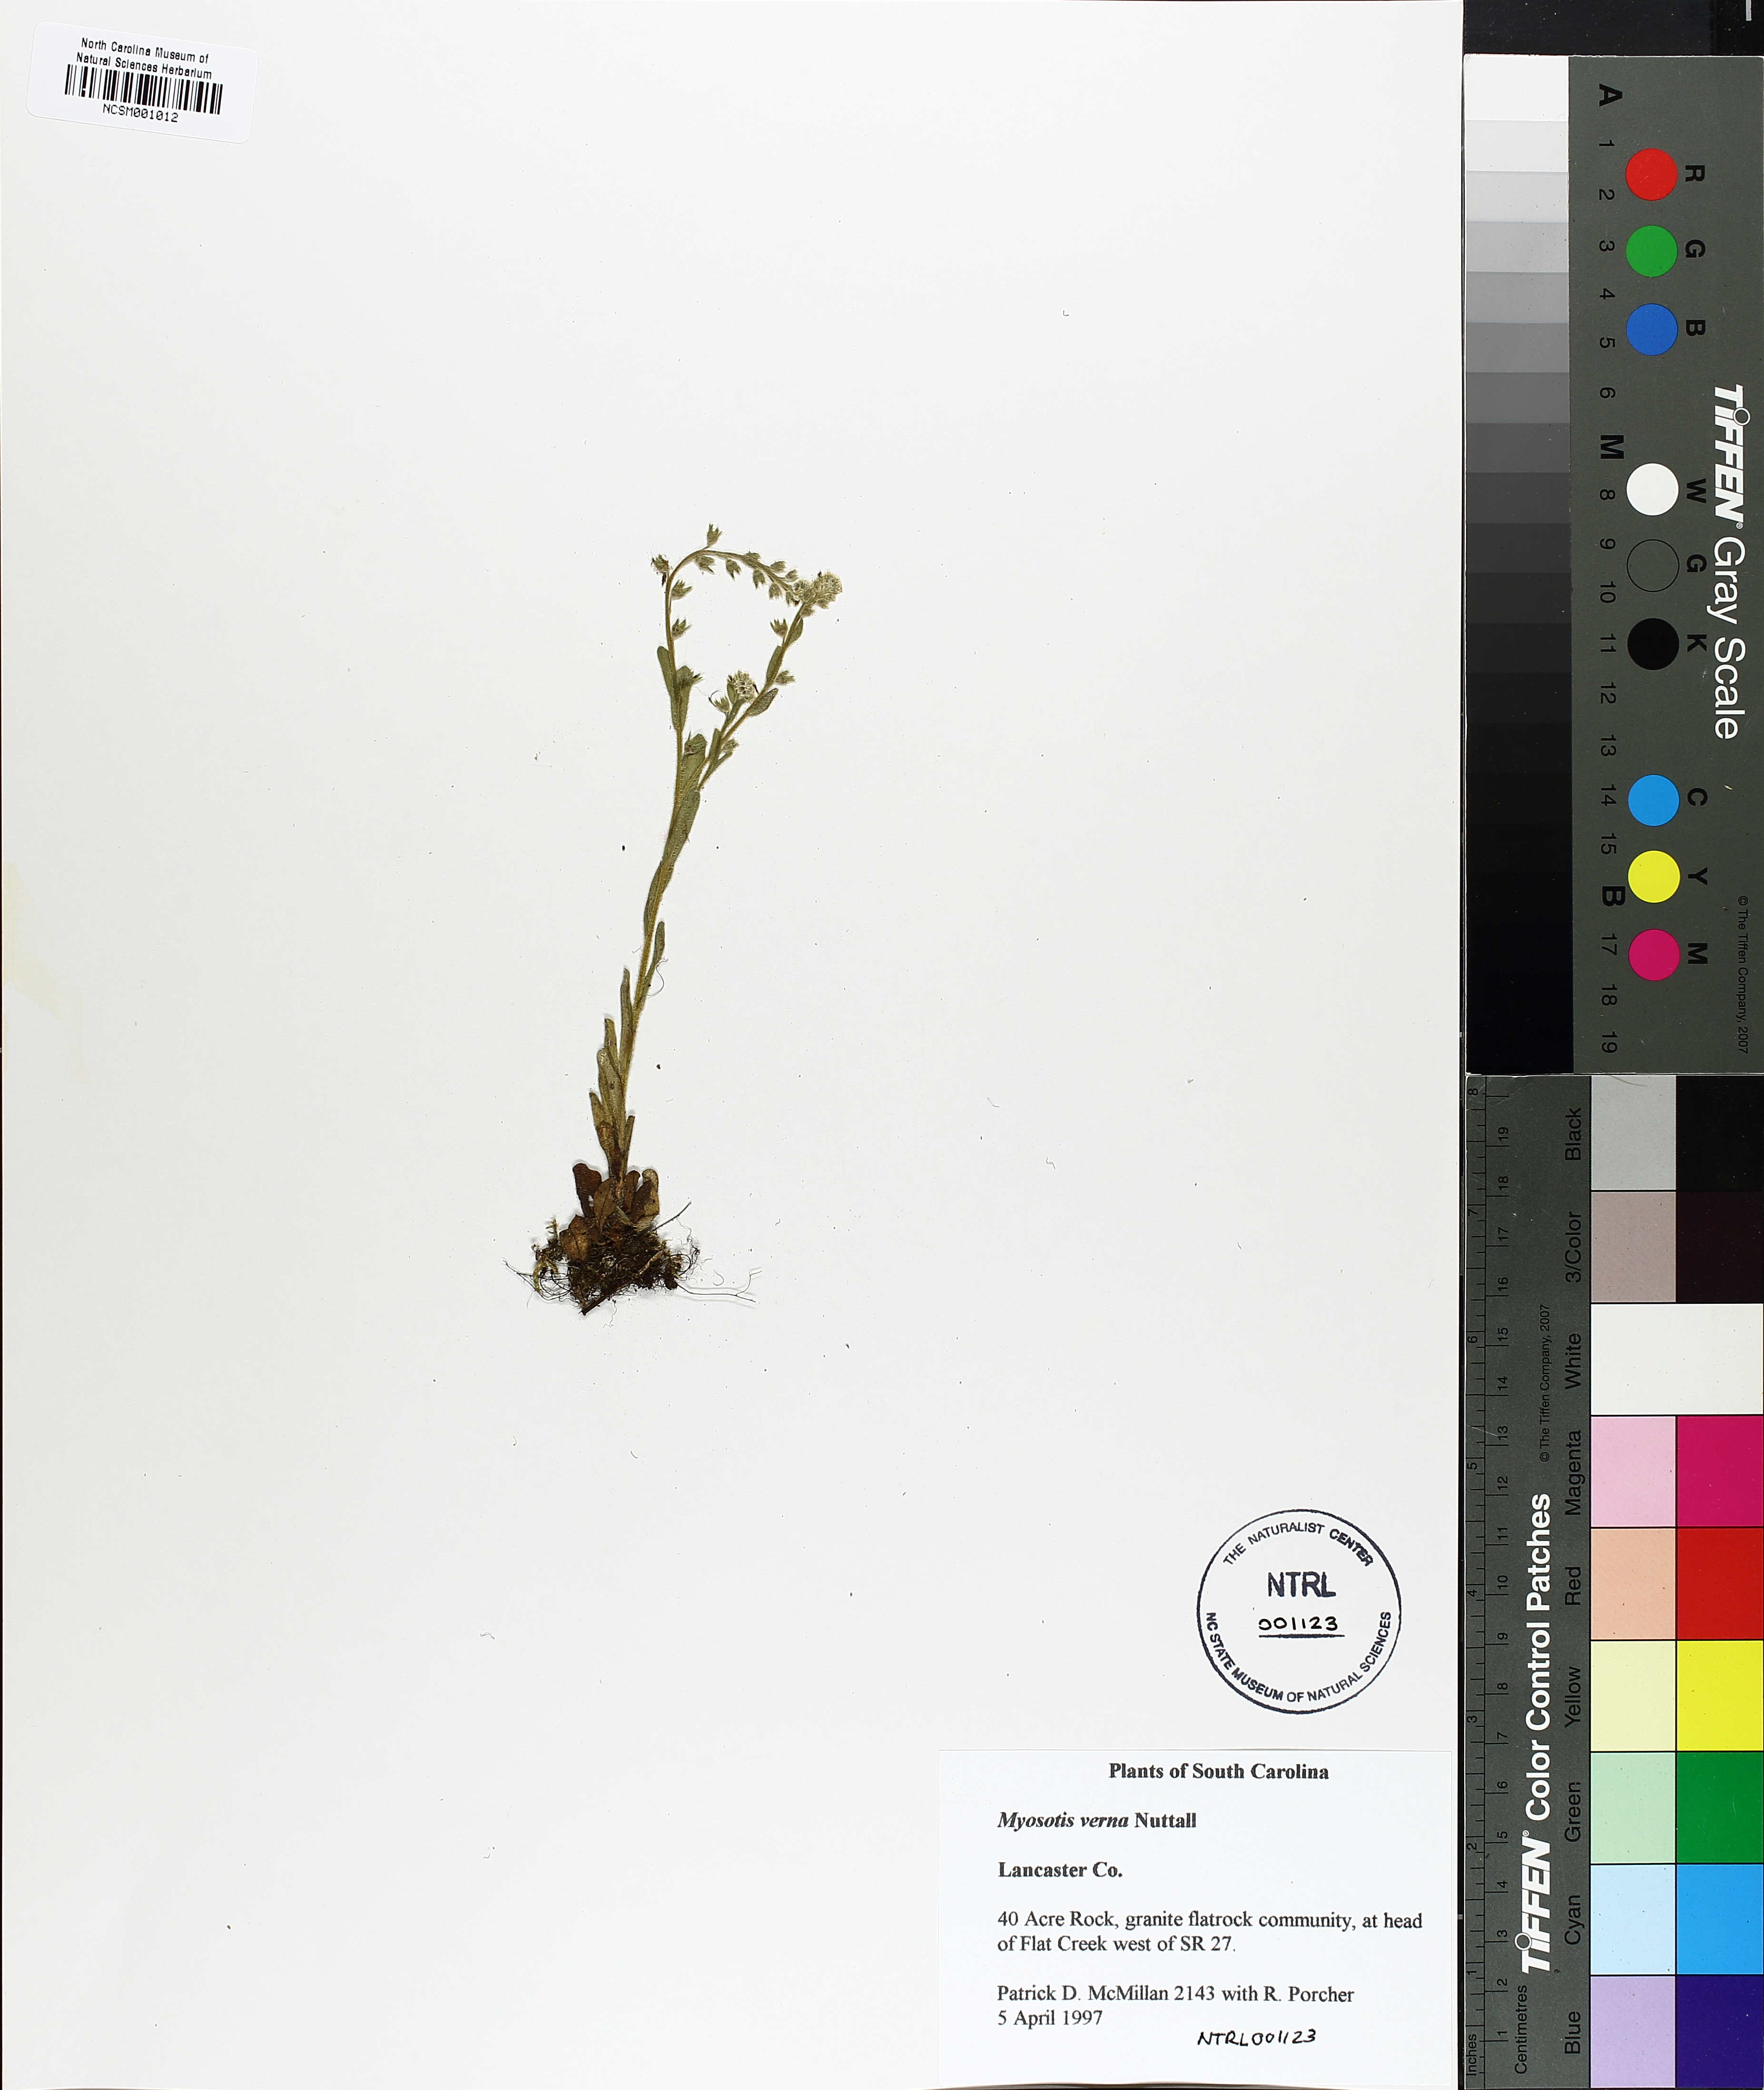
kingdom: Plantae
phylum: Tracheophyta
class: Magnoliopsida
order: Boraginales
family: Boraginaceae
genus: Myosotis
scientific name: Myosotis verna
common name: Early forget-me-not
